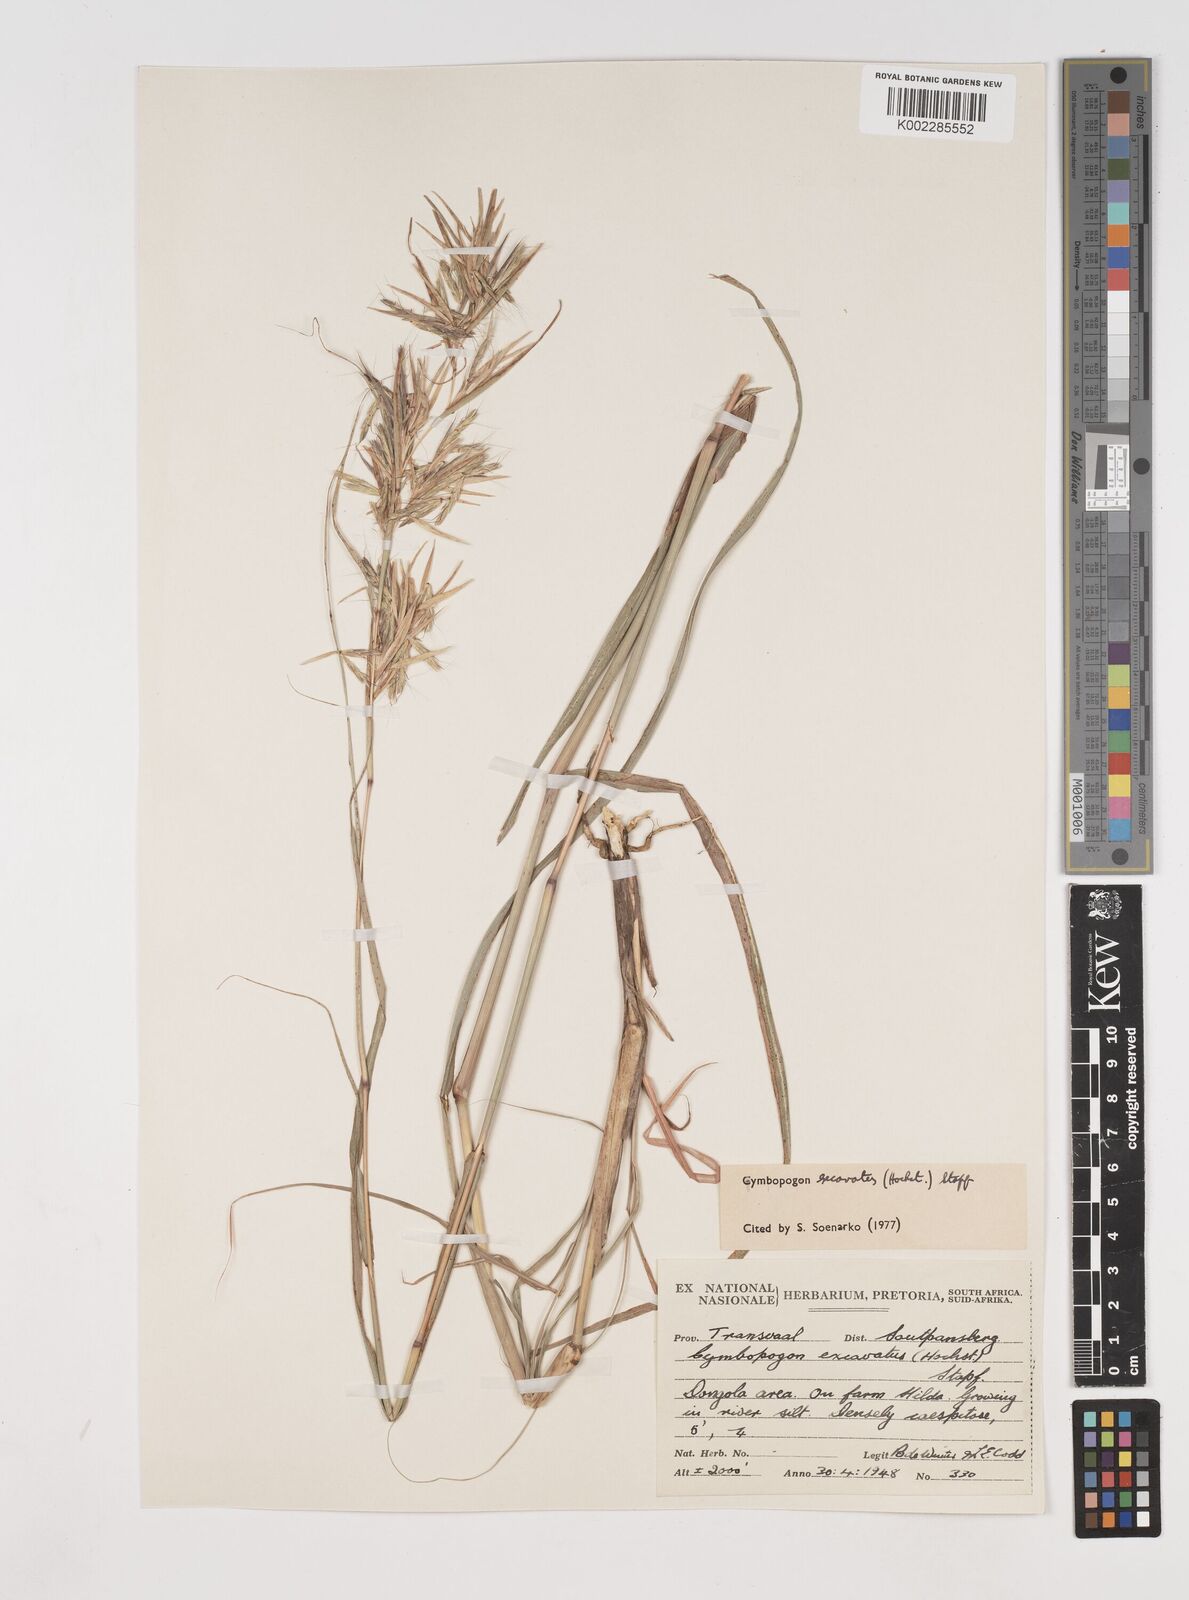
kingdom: Plantae
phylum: Tracheophyta
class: Liliopsida
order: Poales
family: Poaceae
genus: Cymbopogon
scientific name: Cymbopogon caesius
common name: Kachi grass
